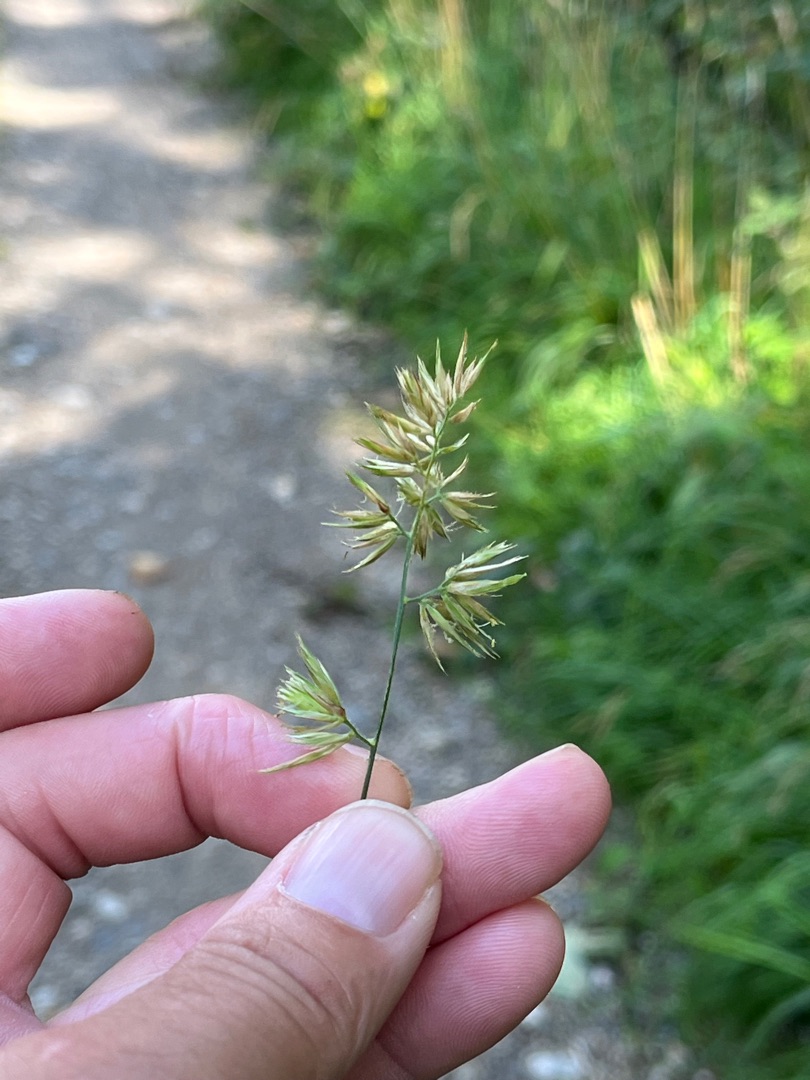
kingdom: Plantae
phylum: Tracheophyta
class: Liliopsida
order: Poales
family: Poaceae
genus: Dactylis
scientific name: Dactylis glomerata
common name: Skov-hundegræs
